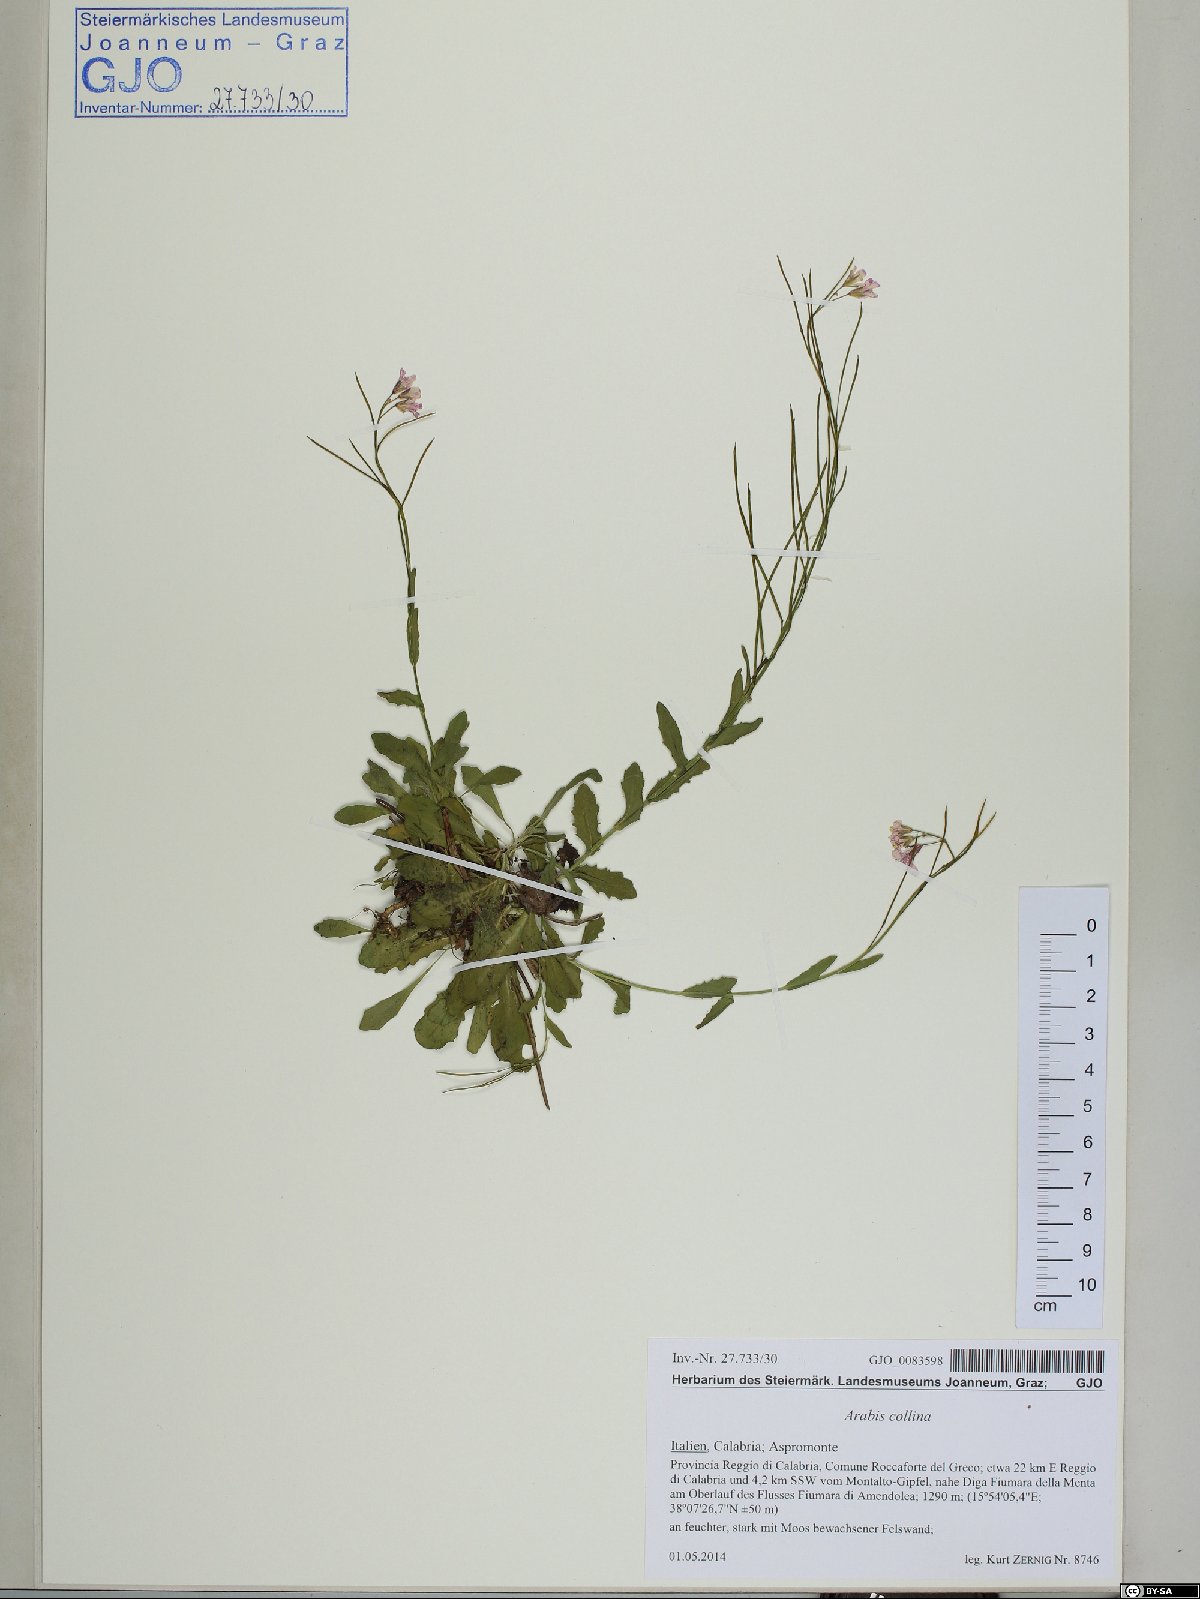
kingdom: Plantae
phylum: Tracheophyta
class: Magnoliopsida
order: Brassicales
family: Brassicaceae
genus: Arabis
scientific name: Arabis collina
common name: Rosy cress
